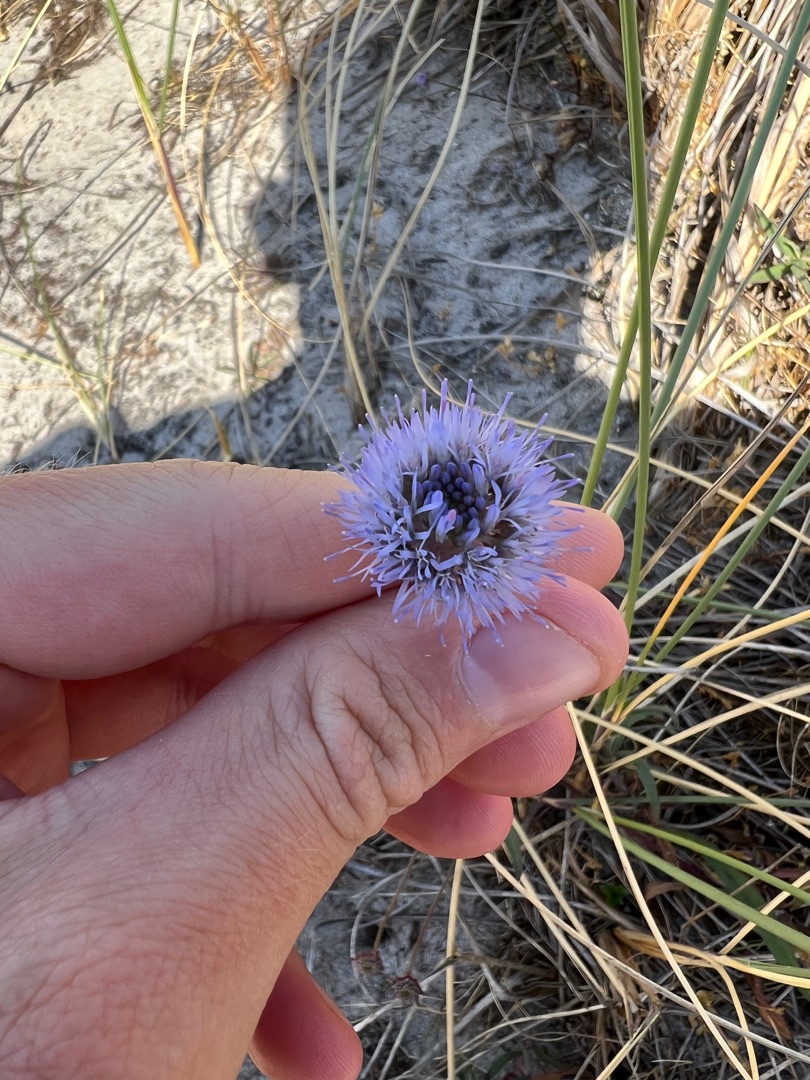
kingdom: Plantae
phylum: Tracheophyta
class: Magnoliopsida
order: Asterales
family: Campanulaceae
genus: Jasione
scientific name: Jasione montana
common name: Blåmunke
